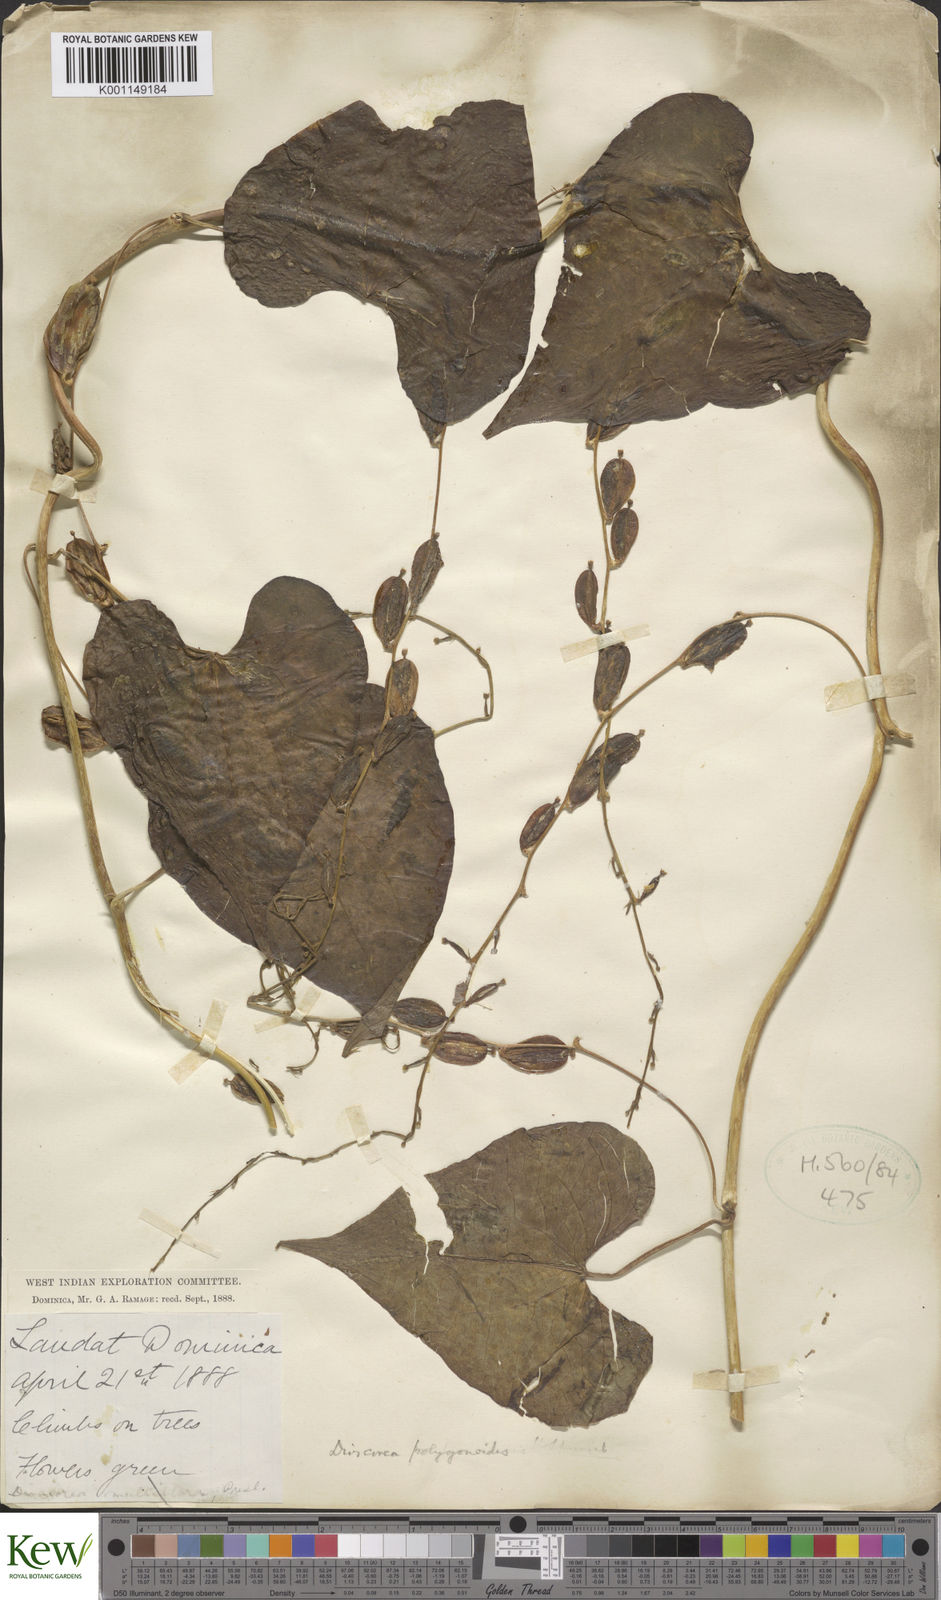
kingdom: Plantae
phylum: Tracheophyta
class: Liliopsida
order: Dioscoreales
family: Dioscoreaceae
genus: Dioscorea
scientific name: Dioscorea polygonoides
